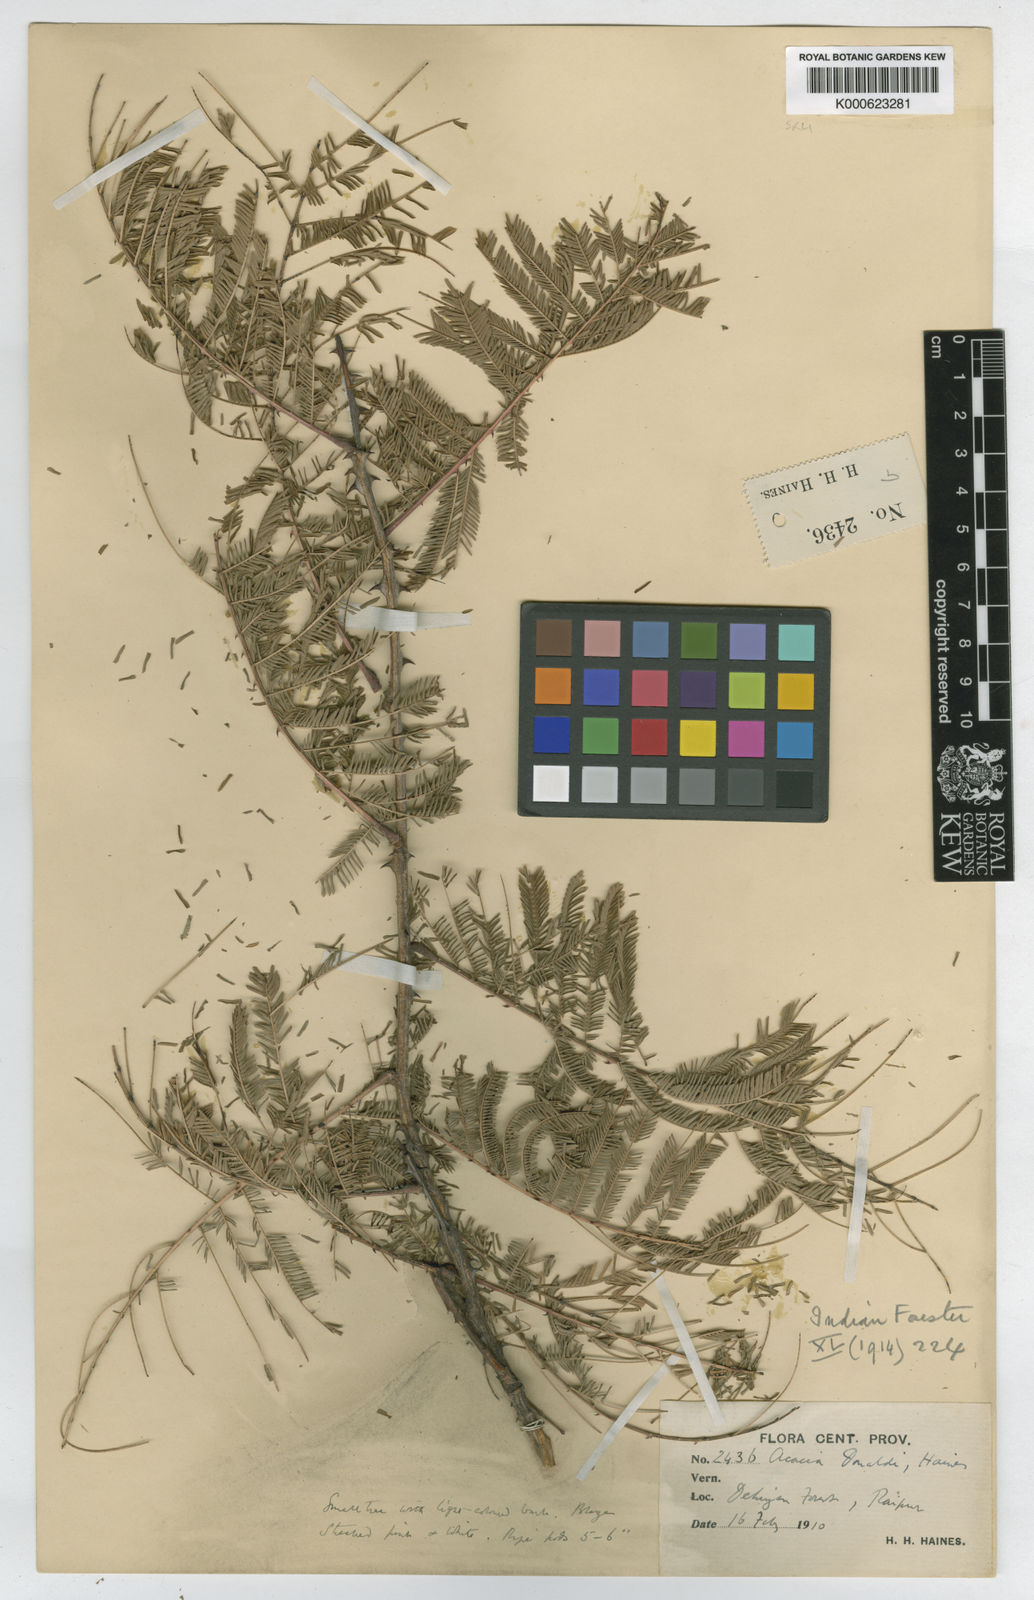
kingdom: Plantae
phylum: Tracheophyta
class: Magnoliopsida
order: Fabales
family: Fabaceae
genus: Senegalia
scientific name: Senegalia donaldi
